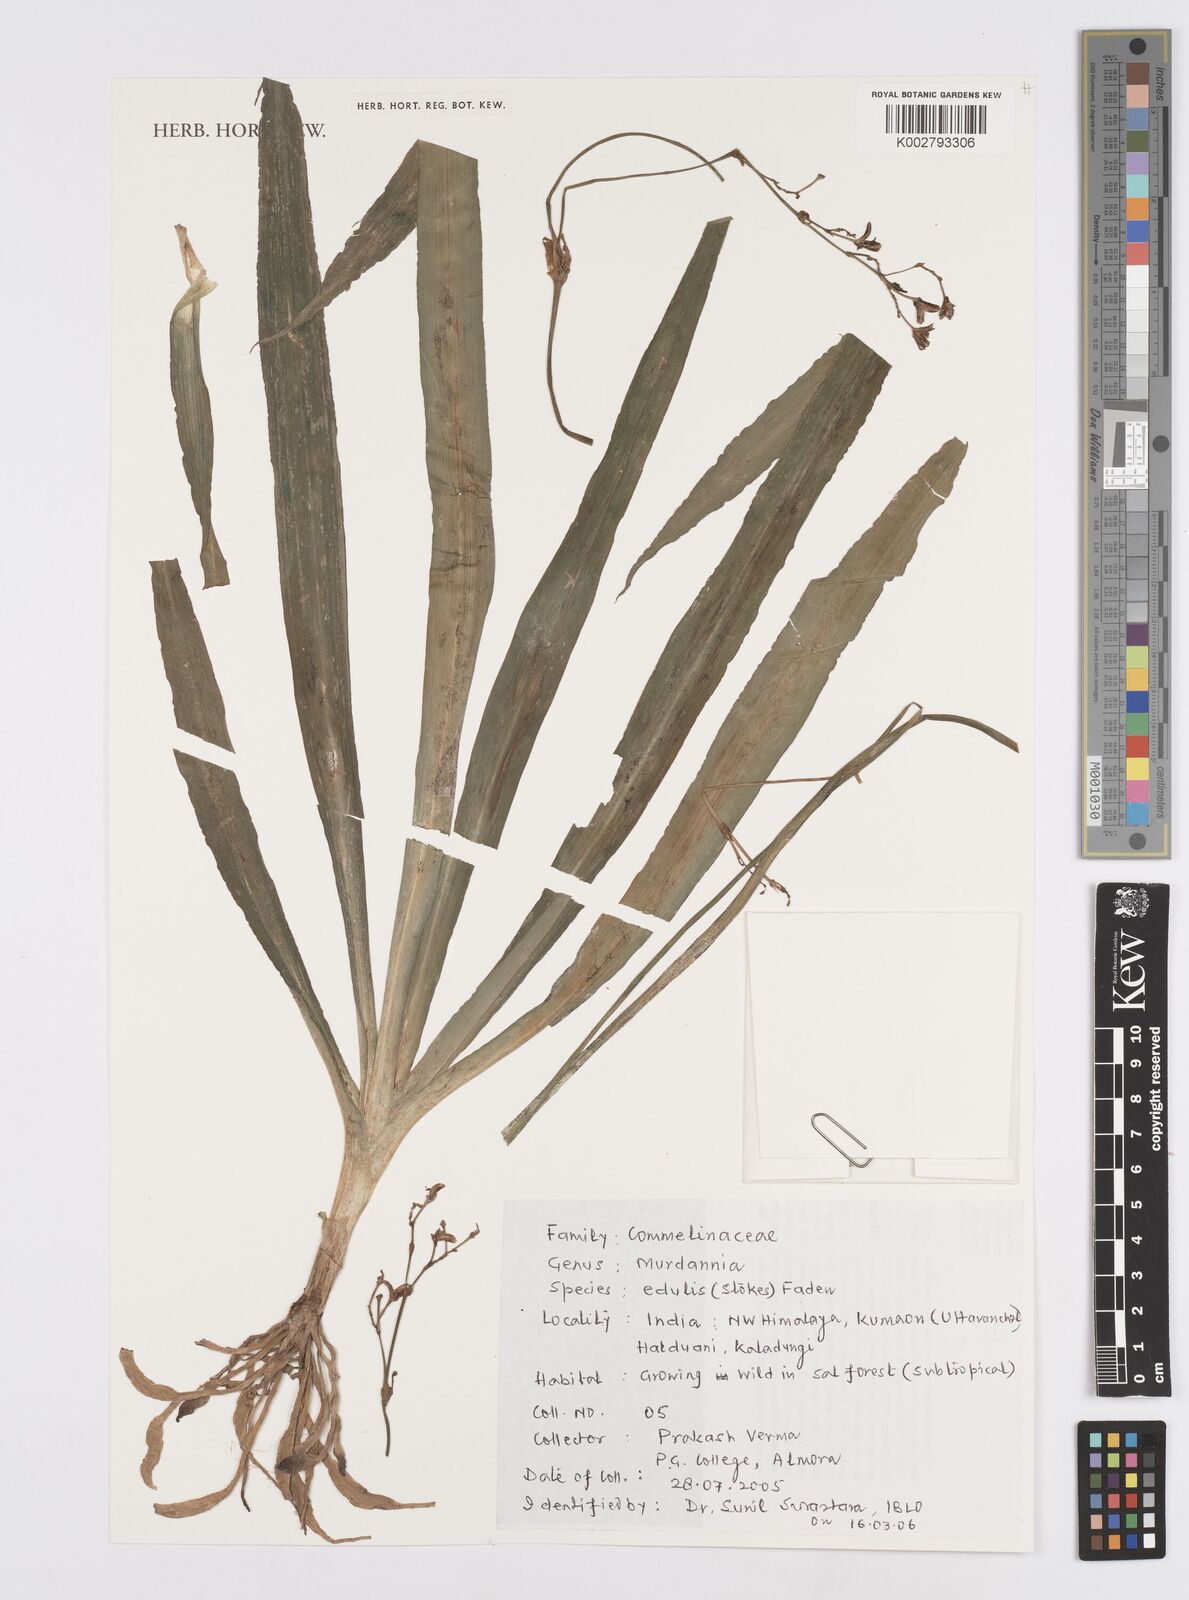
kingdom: Plantae
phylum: Tracheophyta
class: Liliopsida
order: Commelinales
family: Commelinaceae
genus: Murdannia
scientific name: Murdannia edulis
